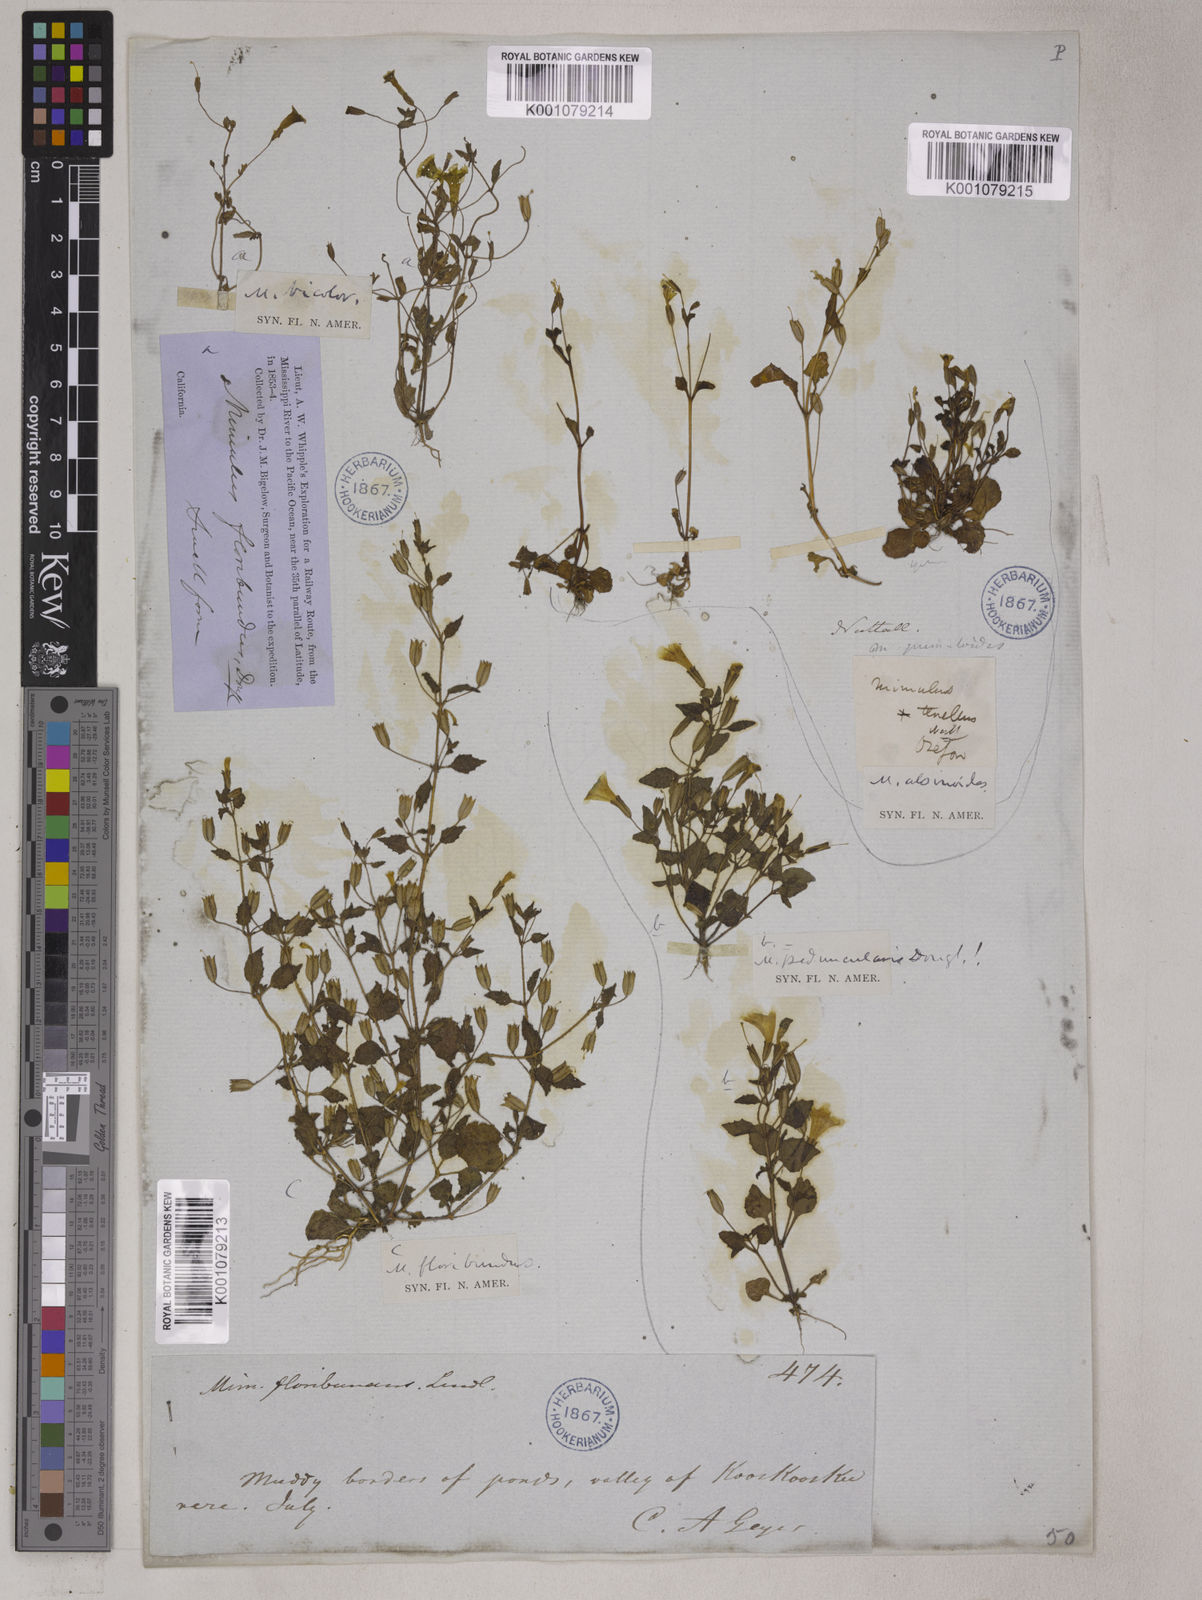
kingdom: Plantae
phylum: Tracheophyta
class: Magnoliopsida
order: Lamiales
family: Phrymaceae
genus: Erythranthe
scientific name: Erythranthe floribunda
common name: Floriferous monkeyflower
